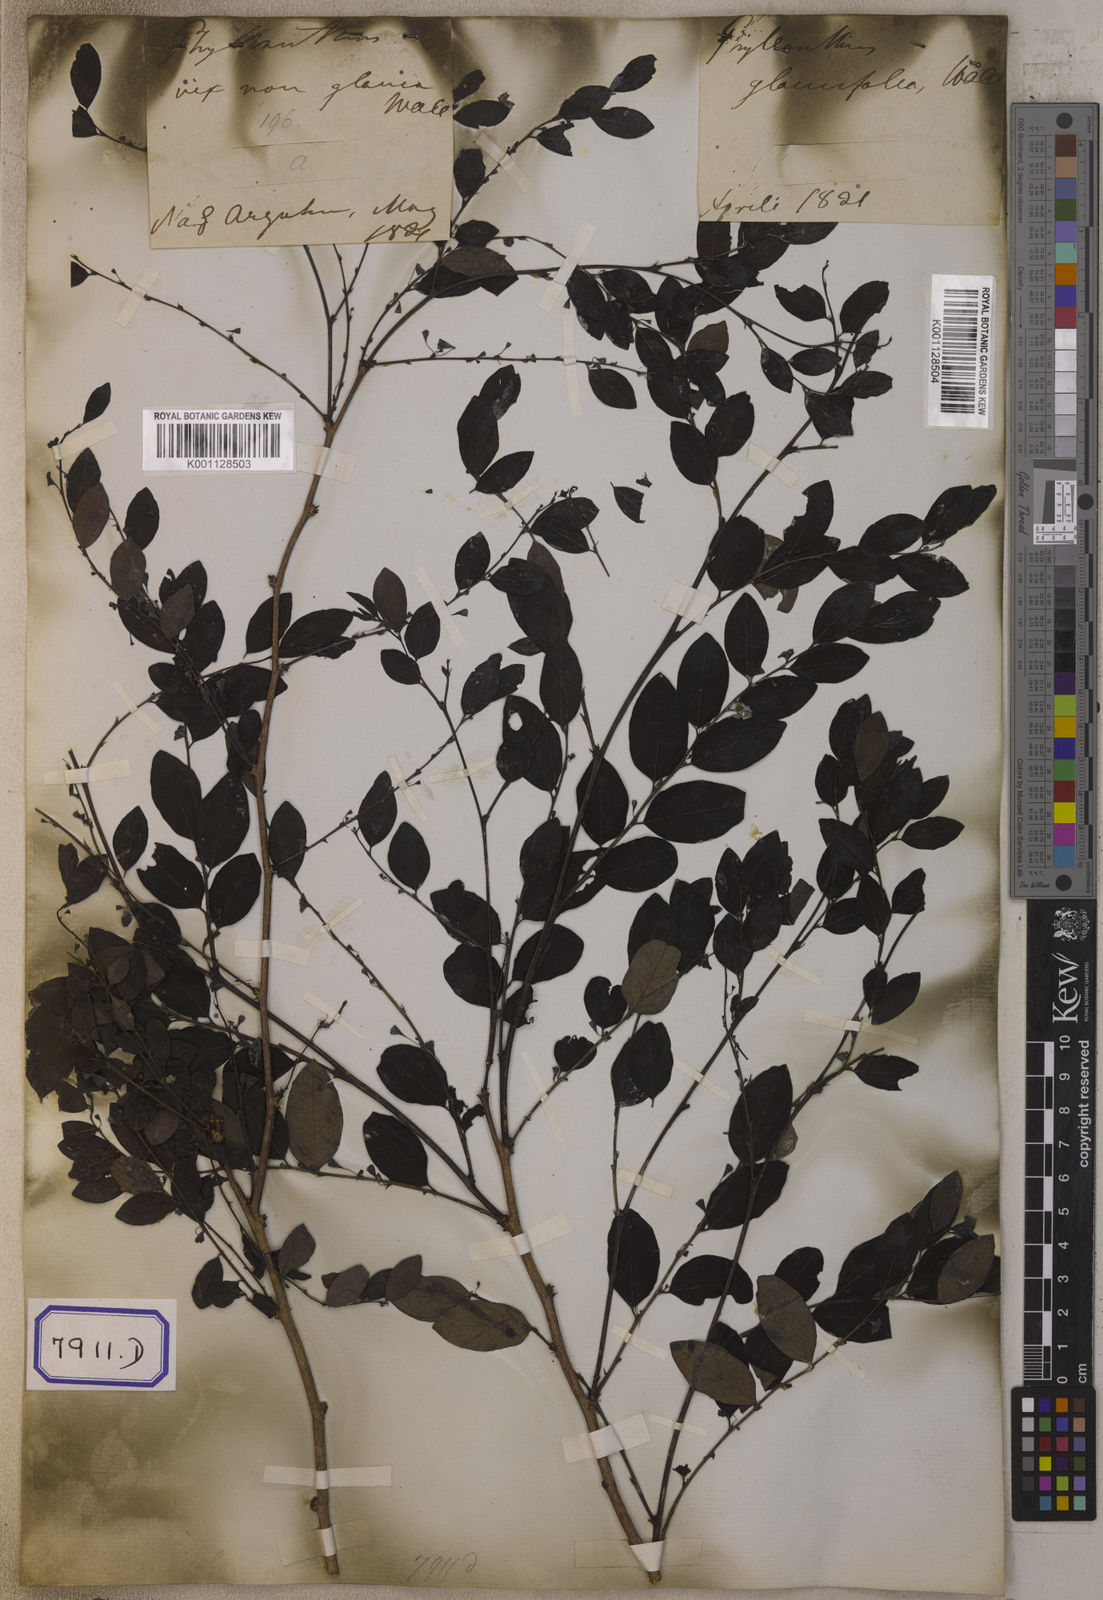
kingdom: Plantae
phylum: Tracheophyta
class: Magnoliopsida
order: Malpighiales
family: Euphorbiaceae
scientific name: Euphorbiaceae
